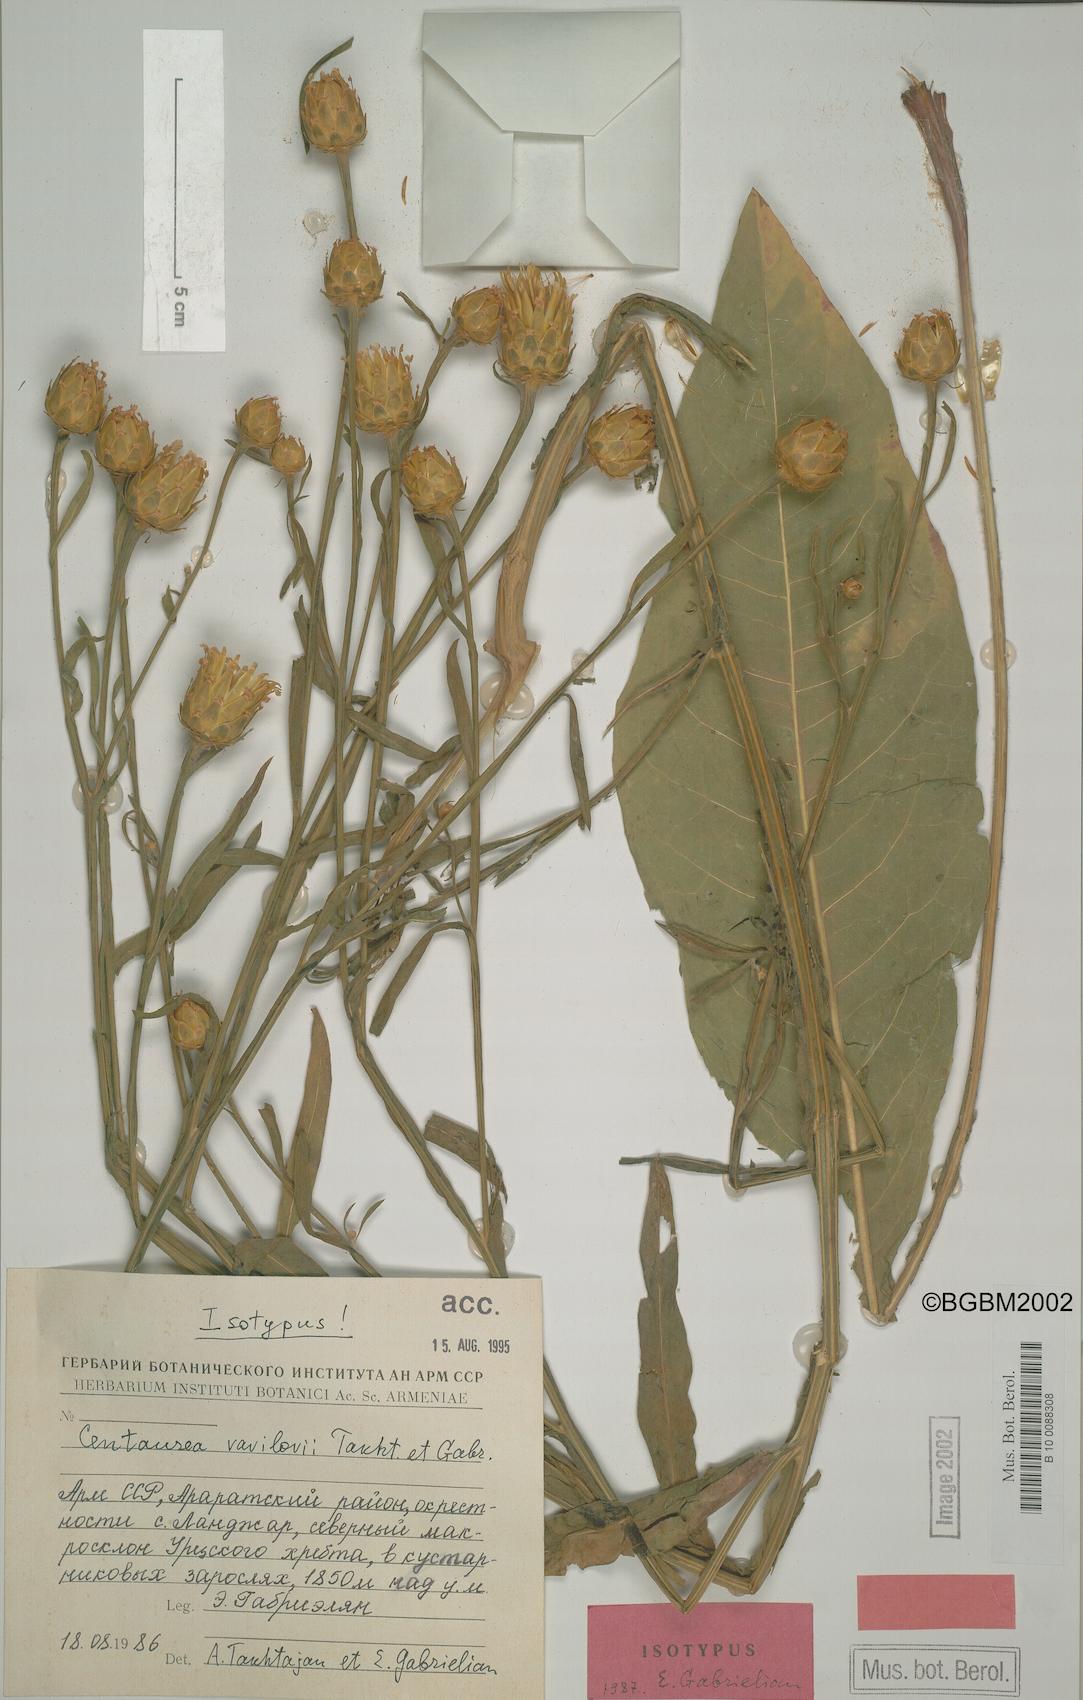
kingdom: Plantae
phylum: Tracheophyta
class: Magnoliopsida
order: Asterales
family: Asteraceae
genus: Centaurea
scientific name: Centaurea vavilovii
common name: Vavilov's centaury
